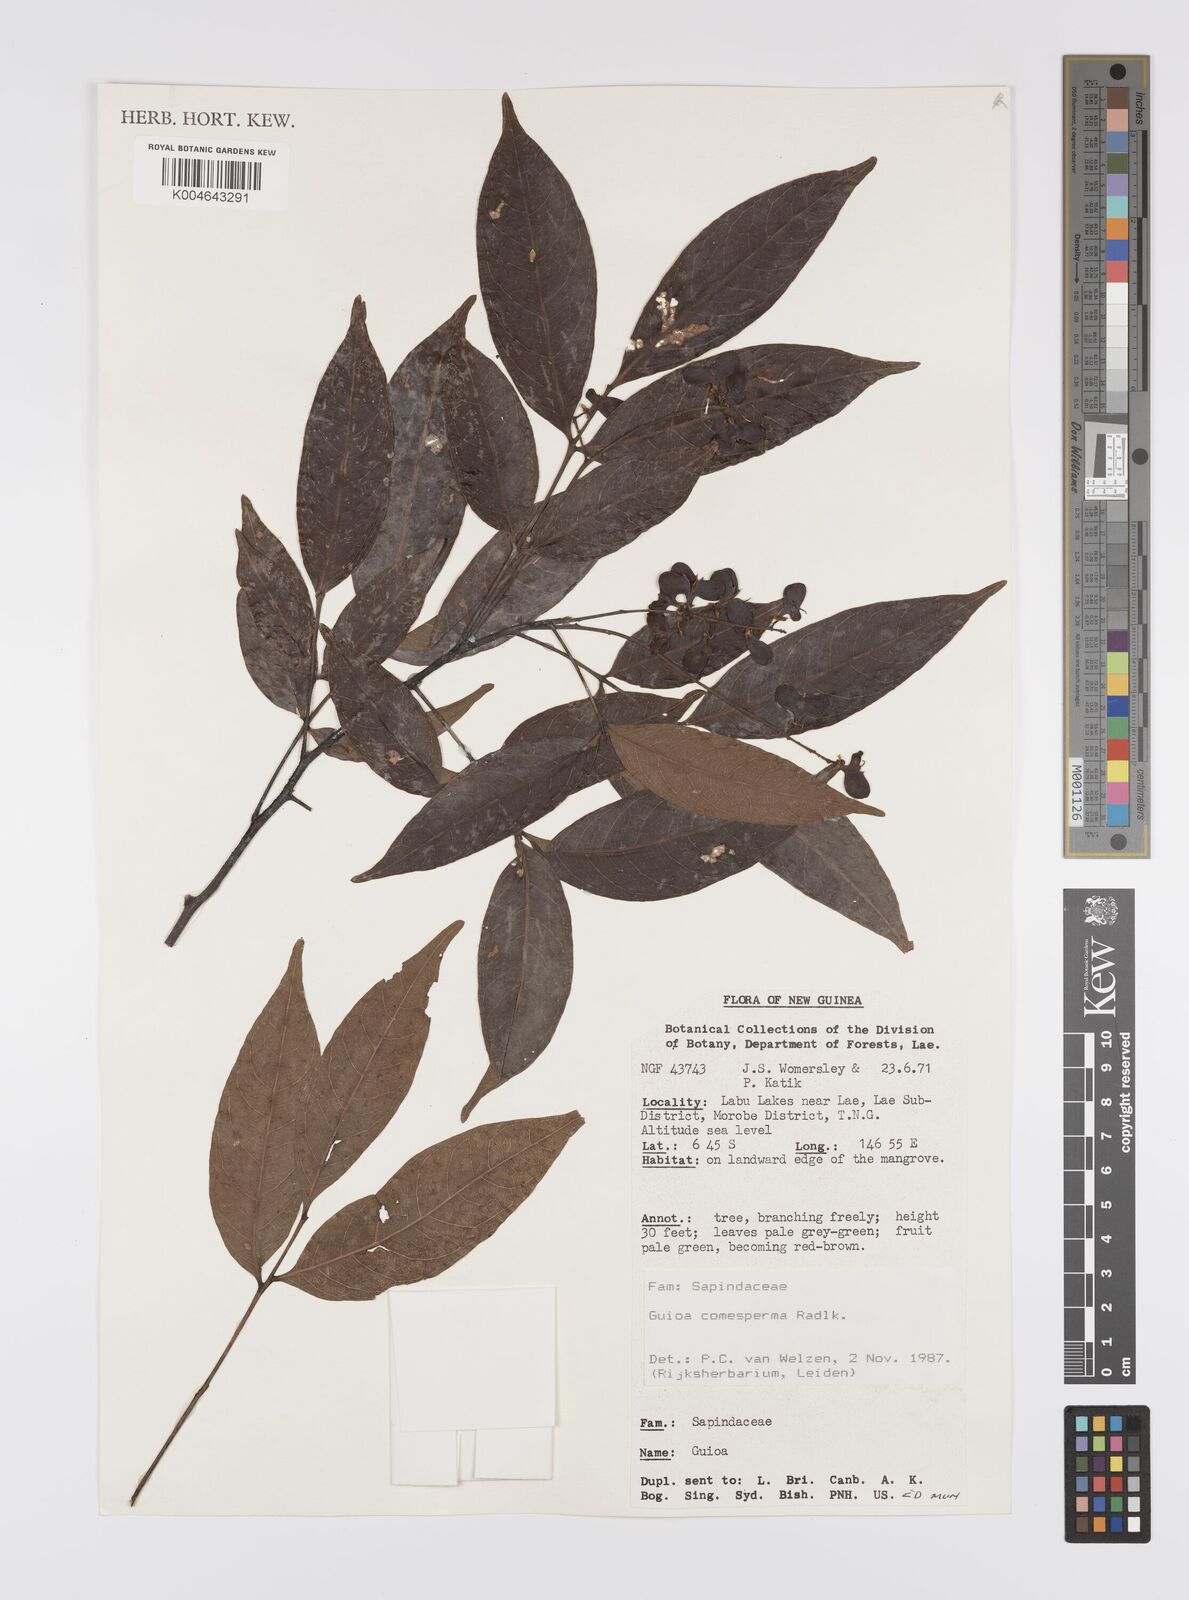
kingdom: Plantae
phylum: Tracheophyta
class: Magnoliopsida
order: Sapindales
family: Sapindaceae
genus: Guioa
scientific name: Guioa comesperma
